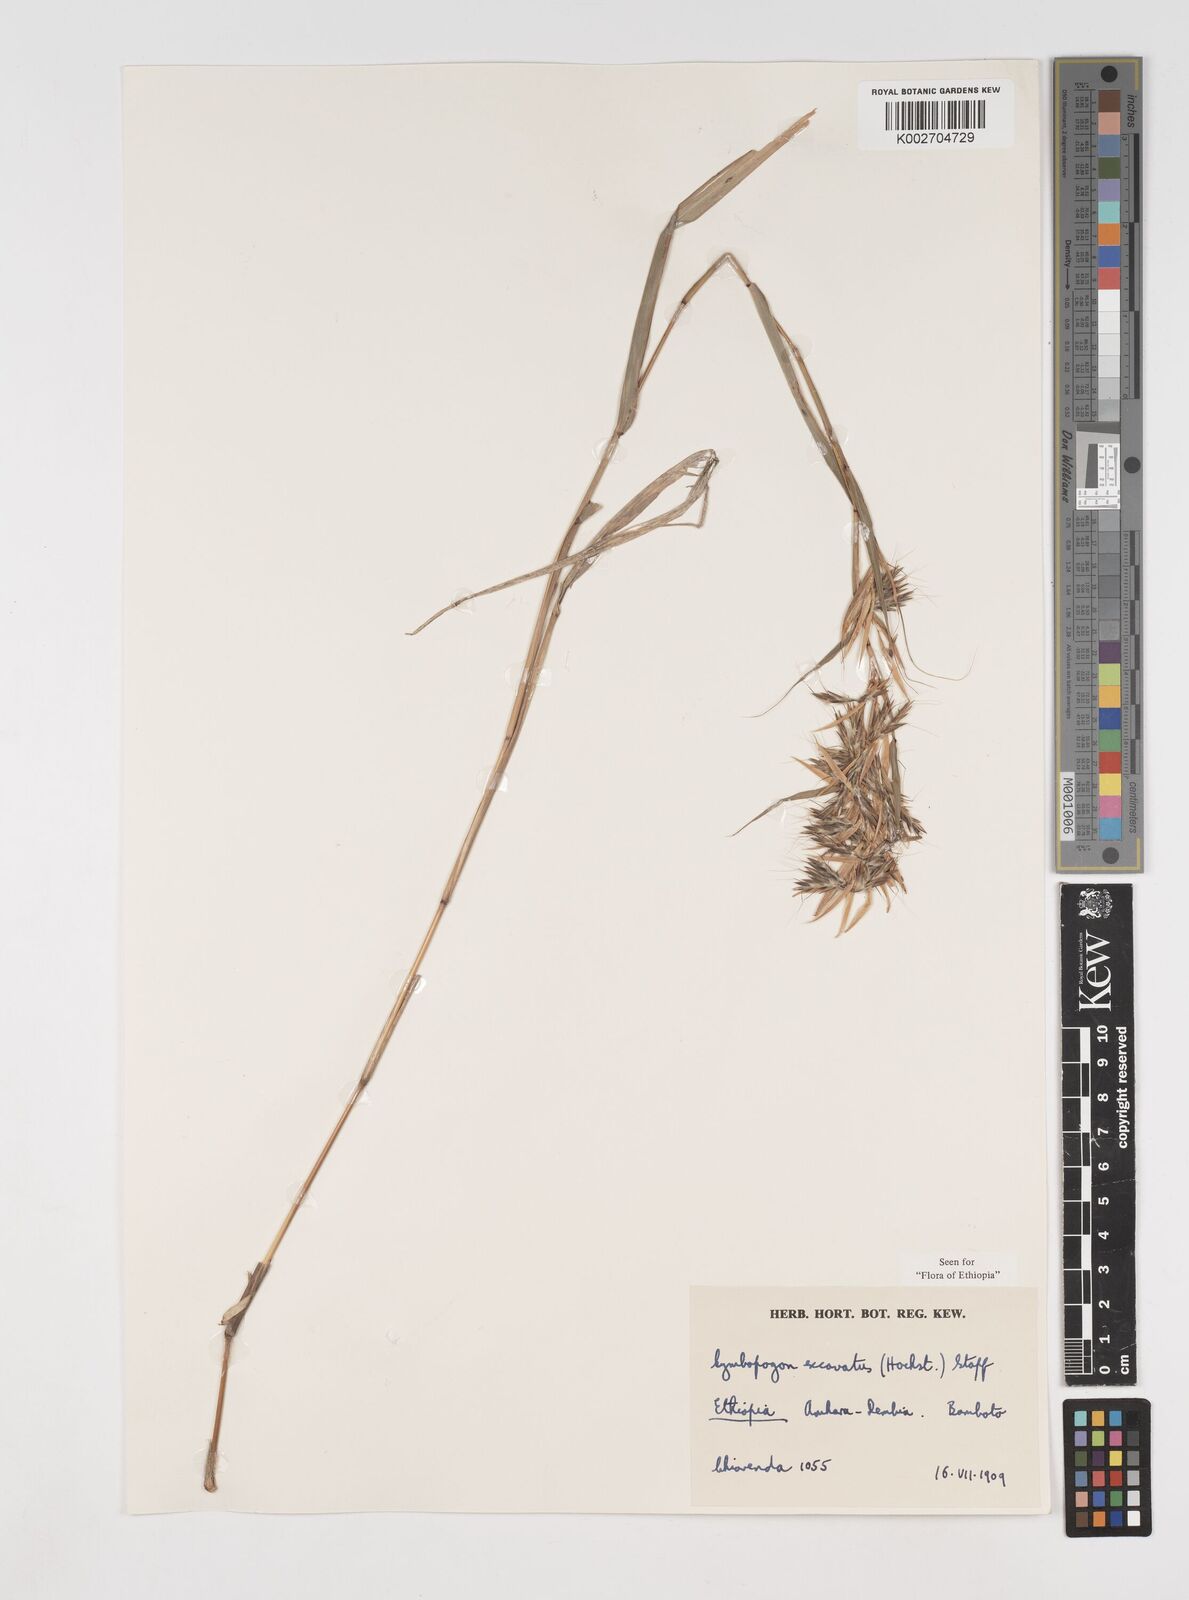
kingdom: Plantae
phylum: Tracheophyta
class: Liliopsida
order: Poales
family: Poaceae
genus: Cymbopogon
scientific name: Cymbopogon caesius
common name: Kachi grass
